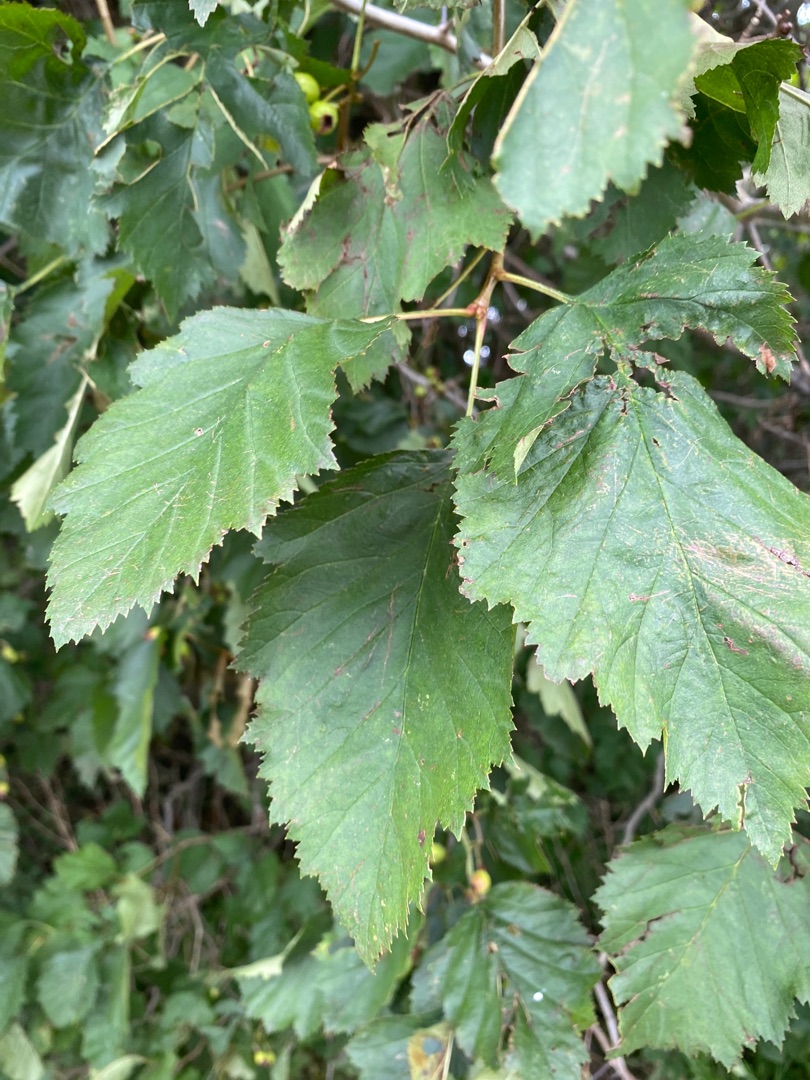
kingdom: Plantae
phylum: Tracheophyta
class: Magnoliopsida
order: Rosales
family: Rosaceae
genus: Crataegus
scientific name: Crataegus coccinea
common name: Skarlagentjørn
